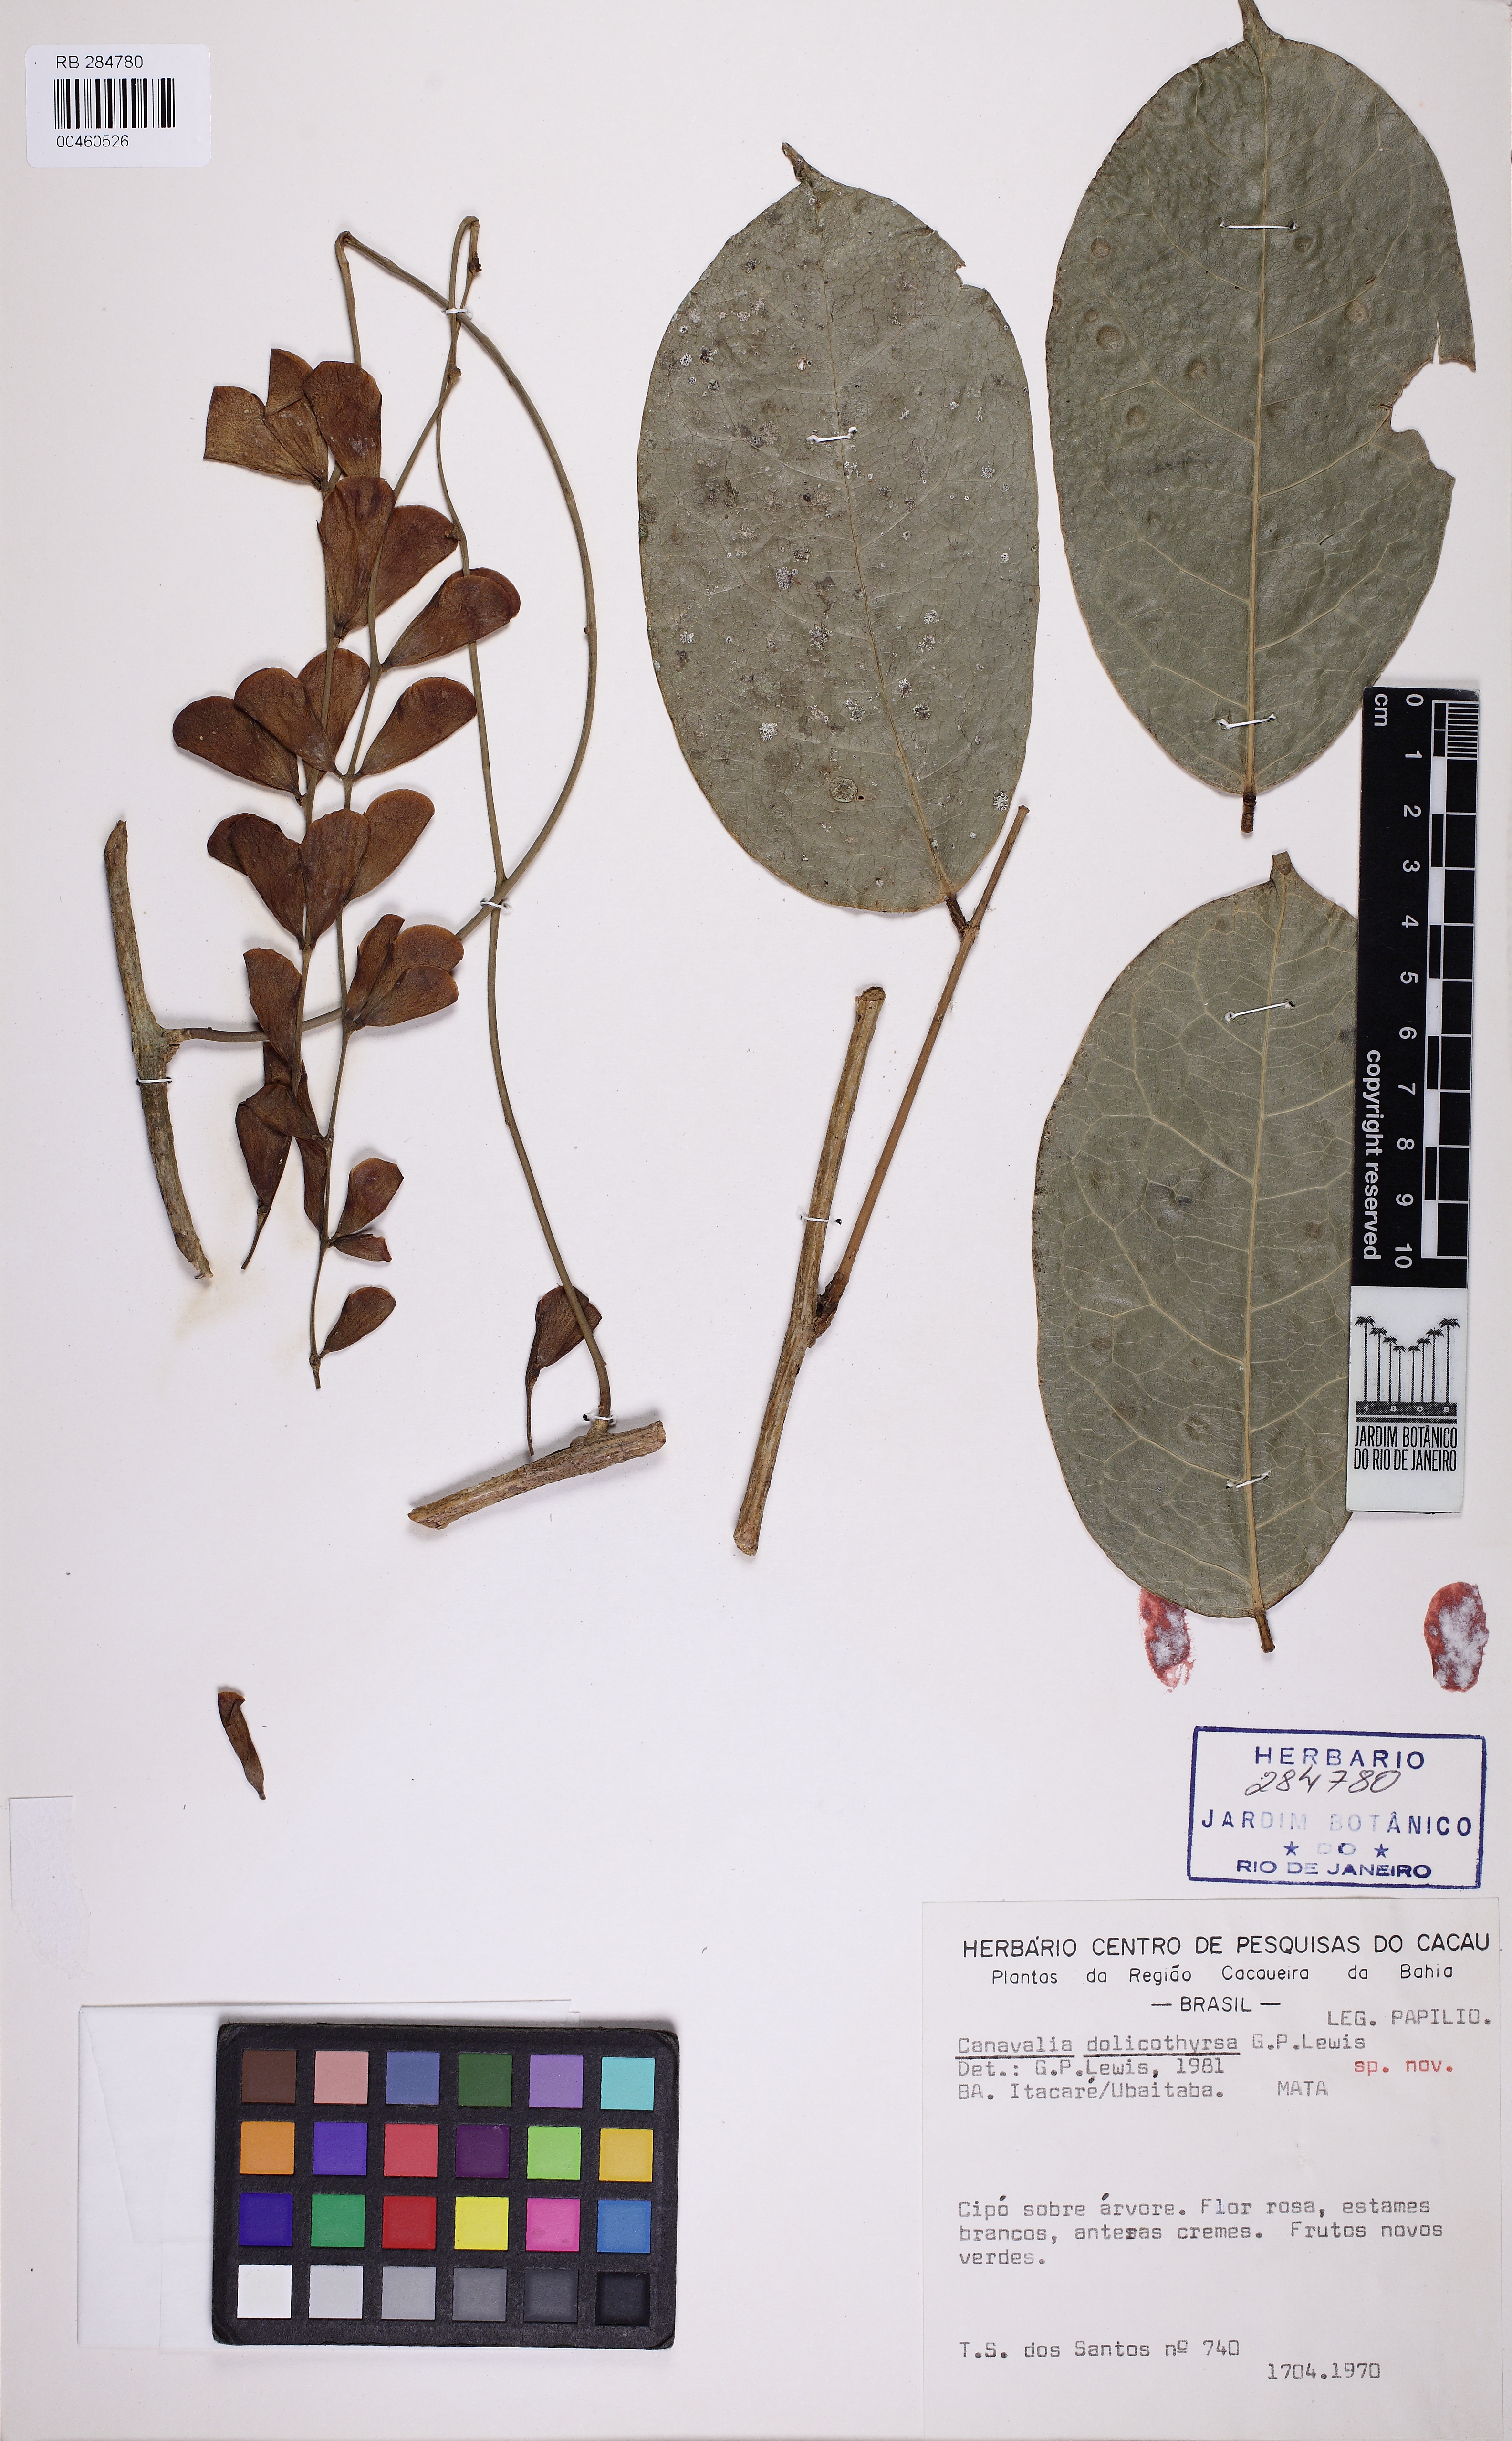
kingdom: Plantae
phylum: Tracheophyta
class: Magnoliopsida
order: Fabales
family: Fabaceae
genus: Canavalia
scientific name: Canavalia dolichothyrsa
